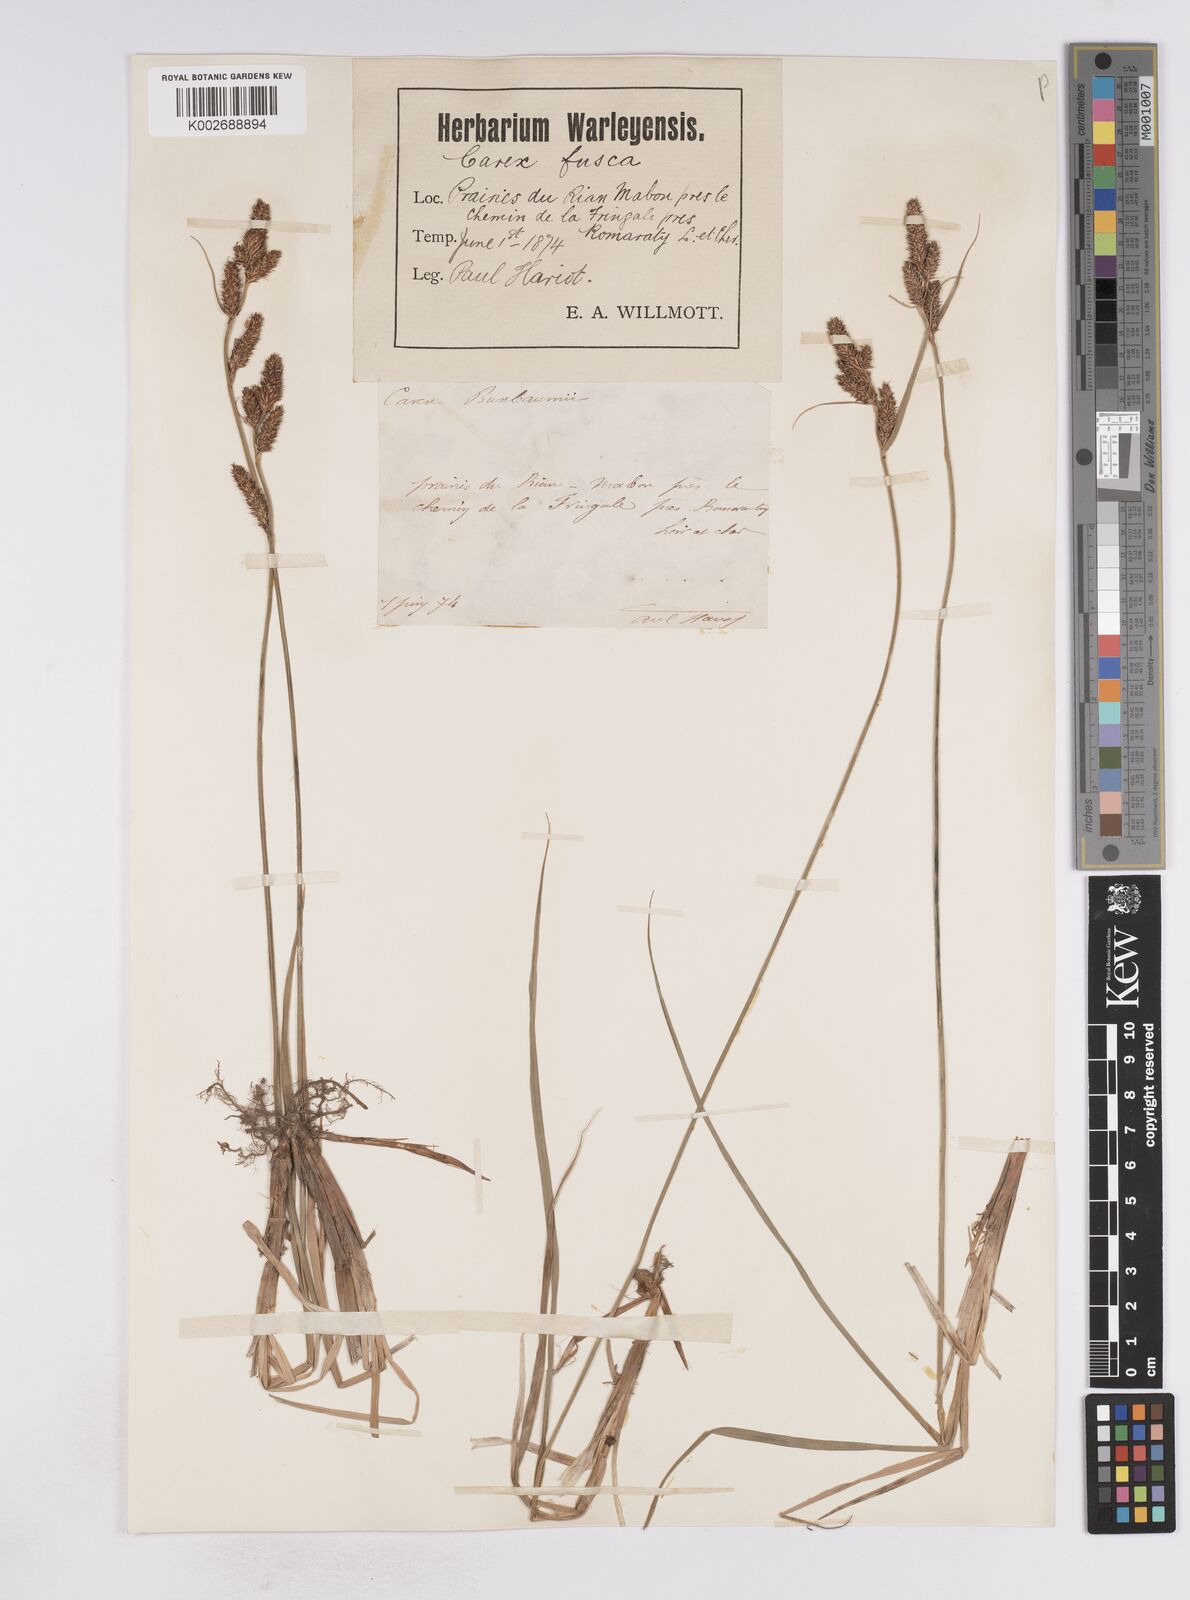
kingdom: Plantae
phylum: Tracheophyta
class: Liliopsida
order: Poales
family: Cyperaceae
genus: Carex
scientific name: Carex buxbaumii
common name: Club sedge
